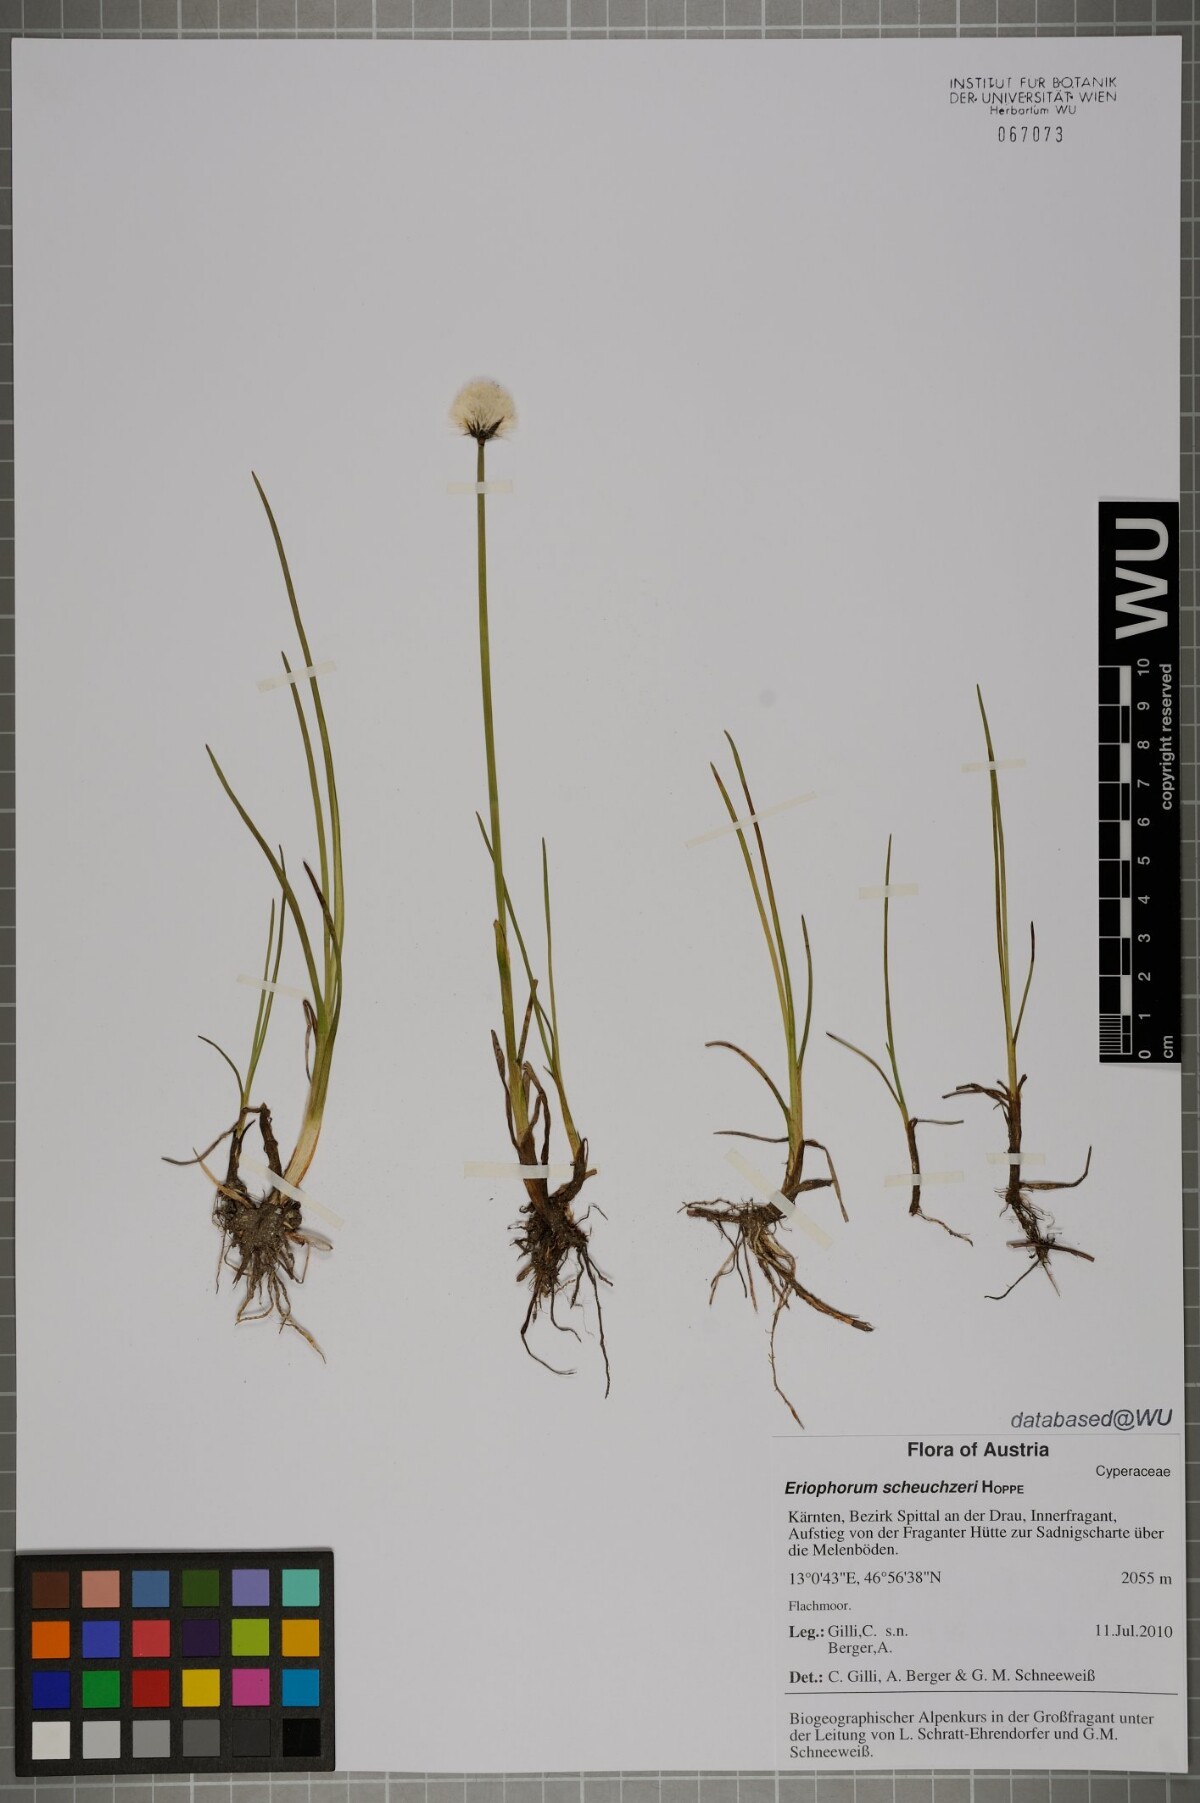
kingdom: Plantae
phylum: Tracheophyta
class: Liliopsida
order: Poales
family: Cyperaceae
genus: Eriophorum
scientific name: Eriophorum scheuchzeri
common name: Scheuchzer's cottongrass
